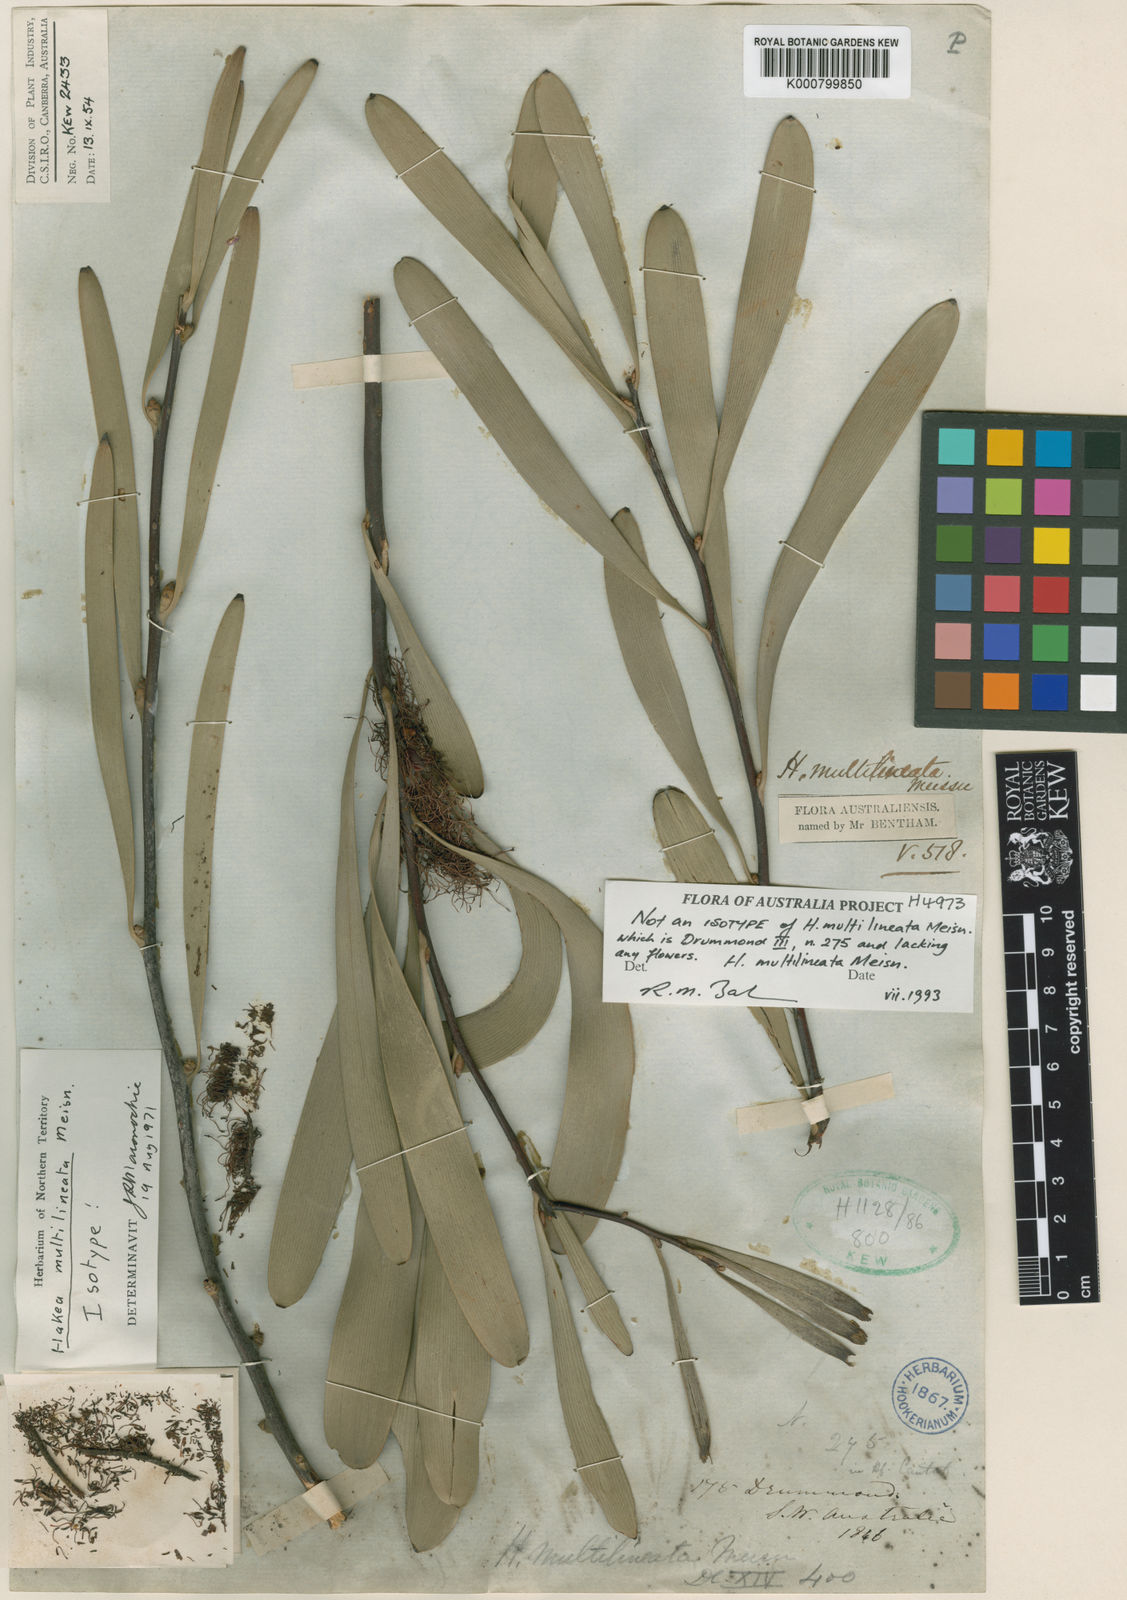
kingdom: Plantae
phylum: Tracheophyta
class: Magnoliopsida
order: Proteales
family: Proteaceae
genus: Hakea
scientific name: Hakea multilineata
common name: Grass-leaf hakea
